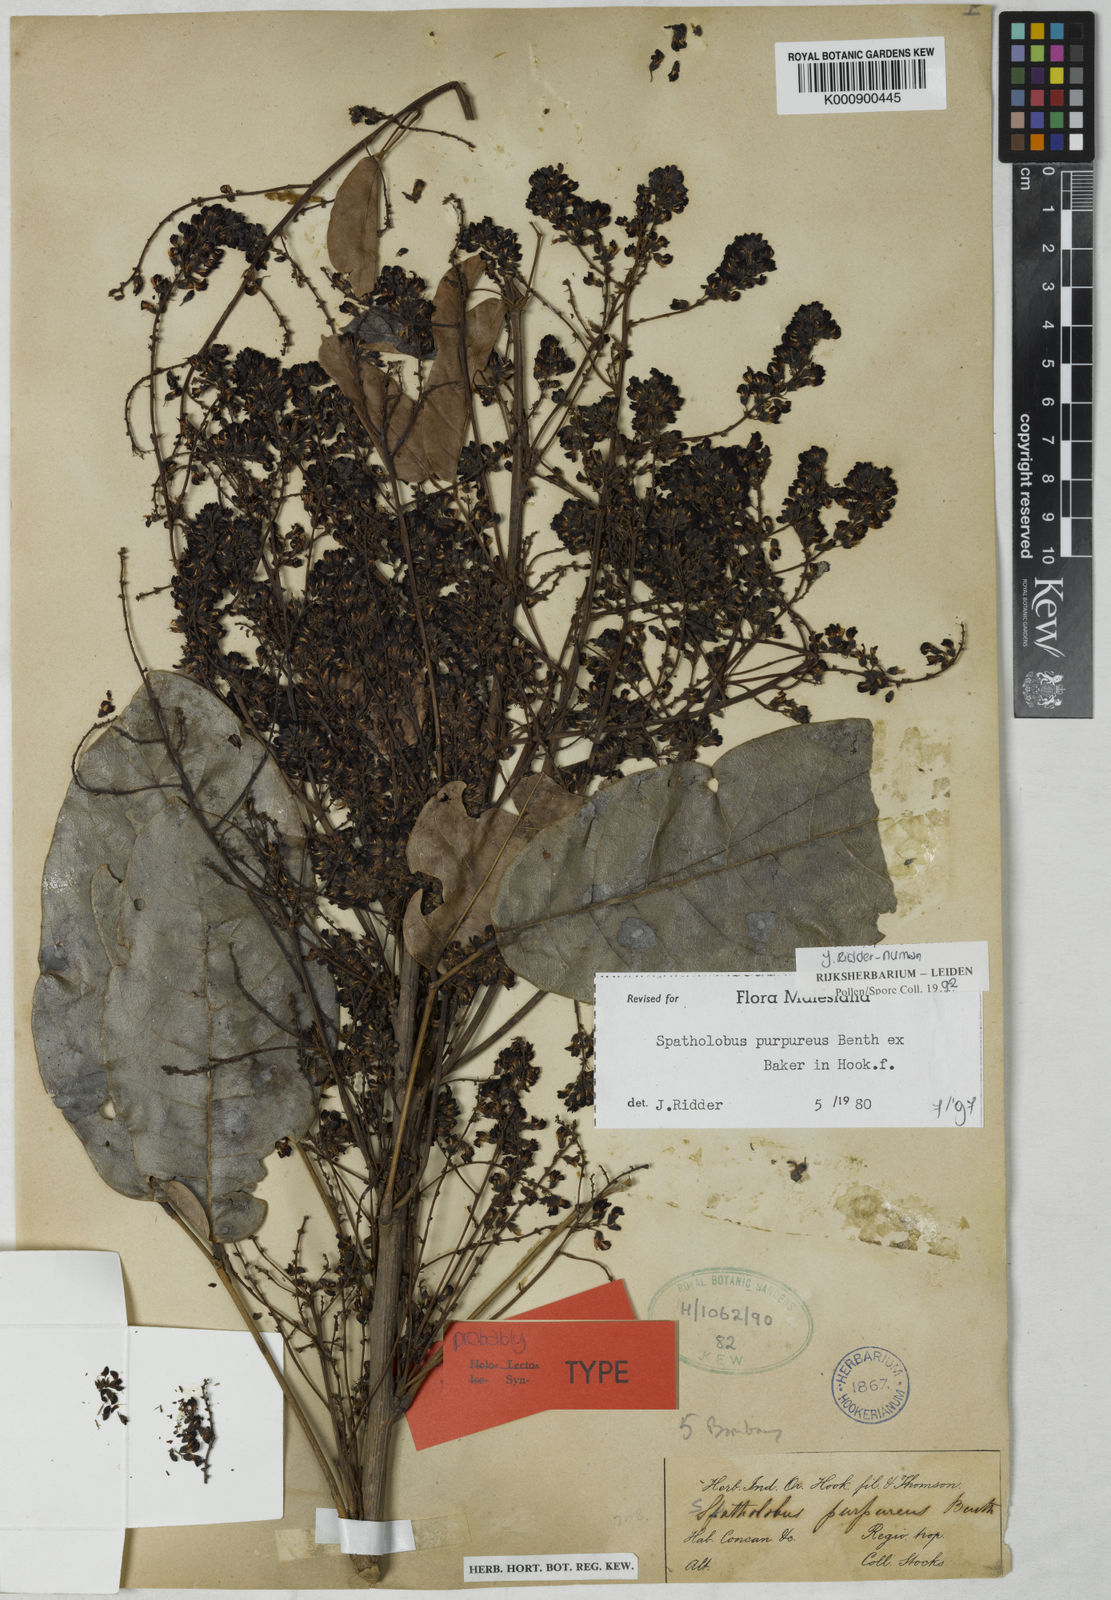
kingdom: Plantae
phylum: Tracheophyta
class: Magnoliopsida
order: Fabales
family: Fabaceae
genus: Spatholobus
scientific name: Spatholobus purpureus
